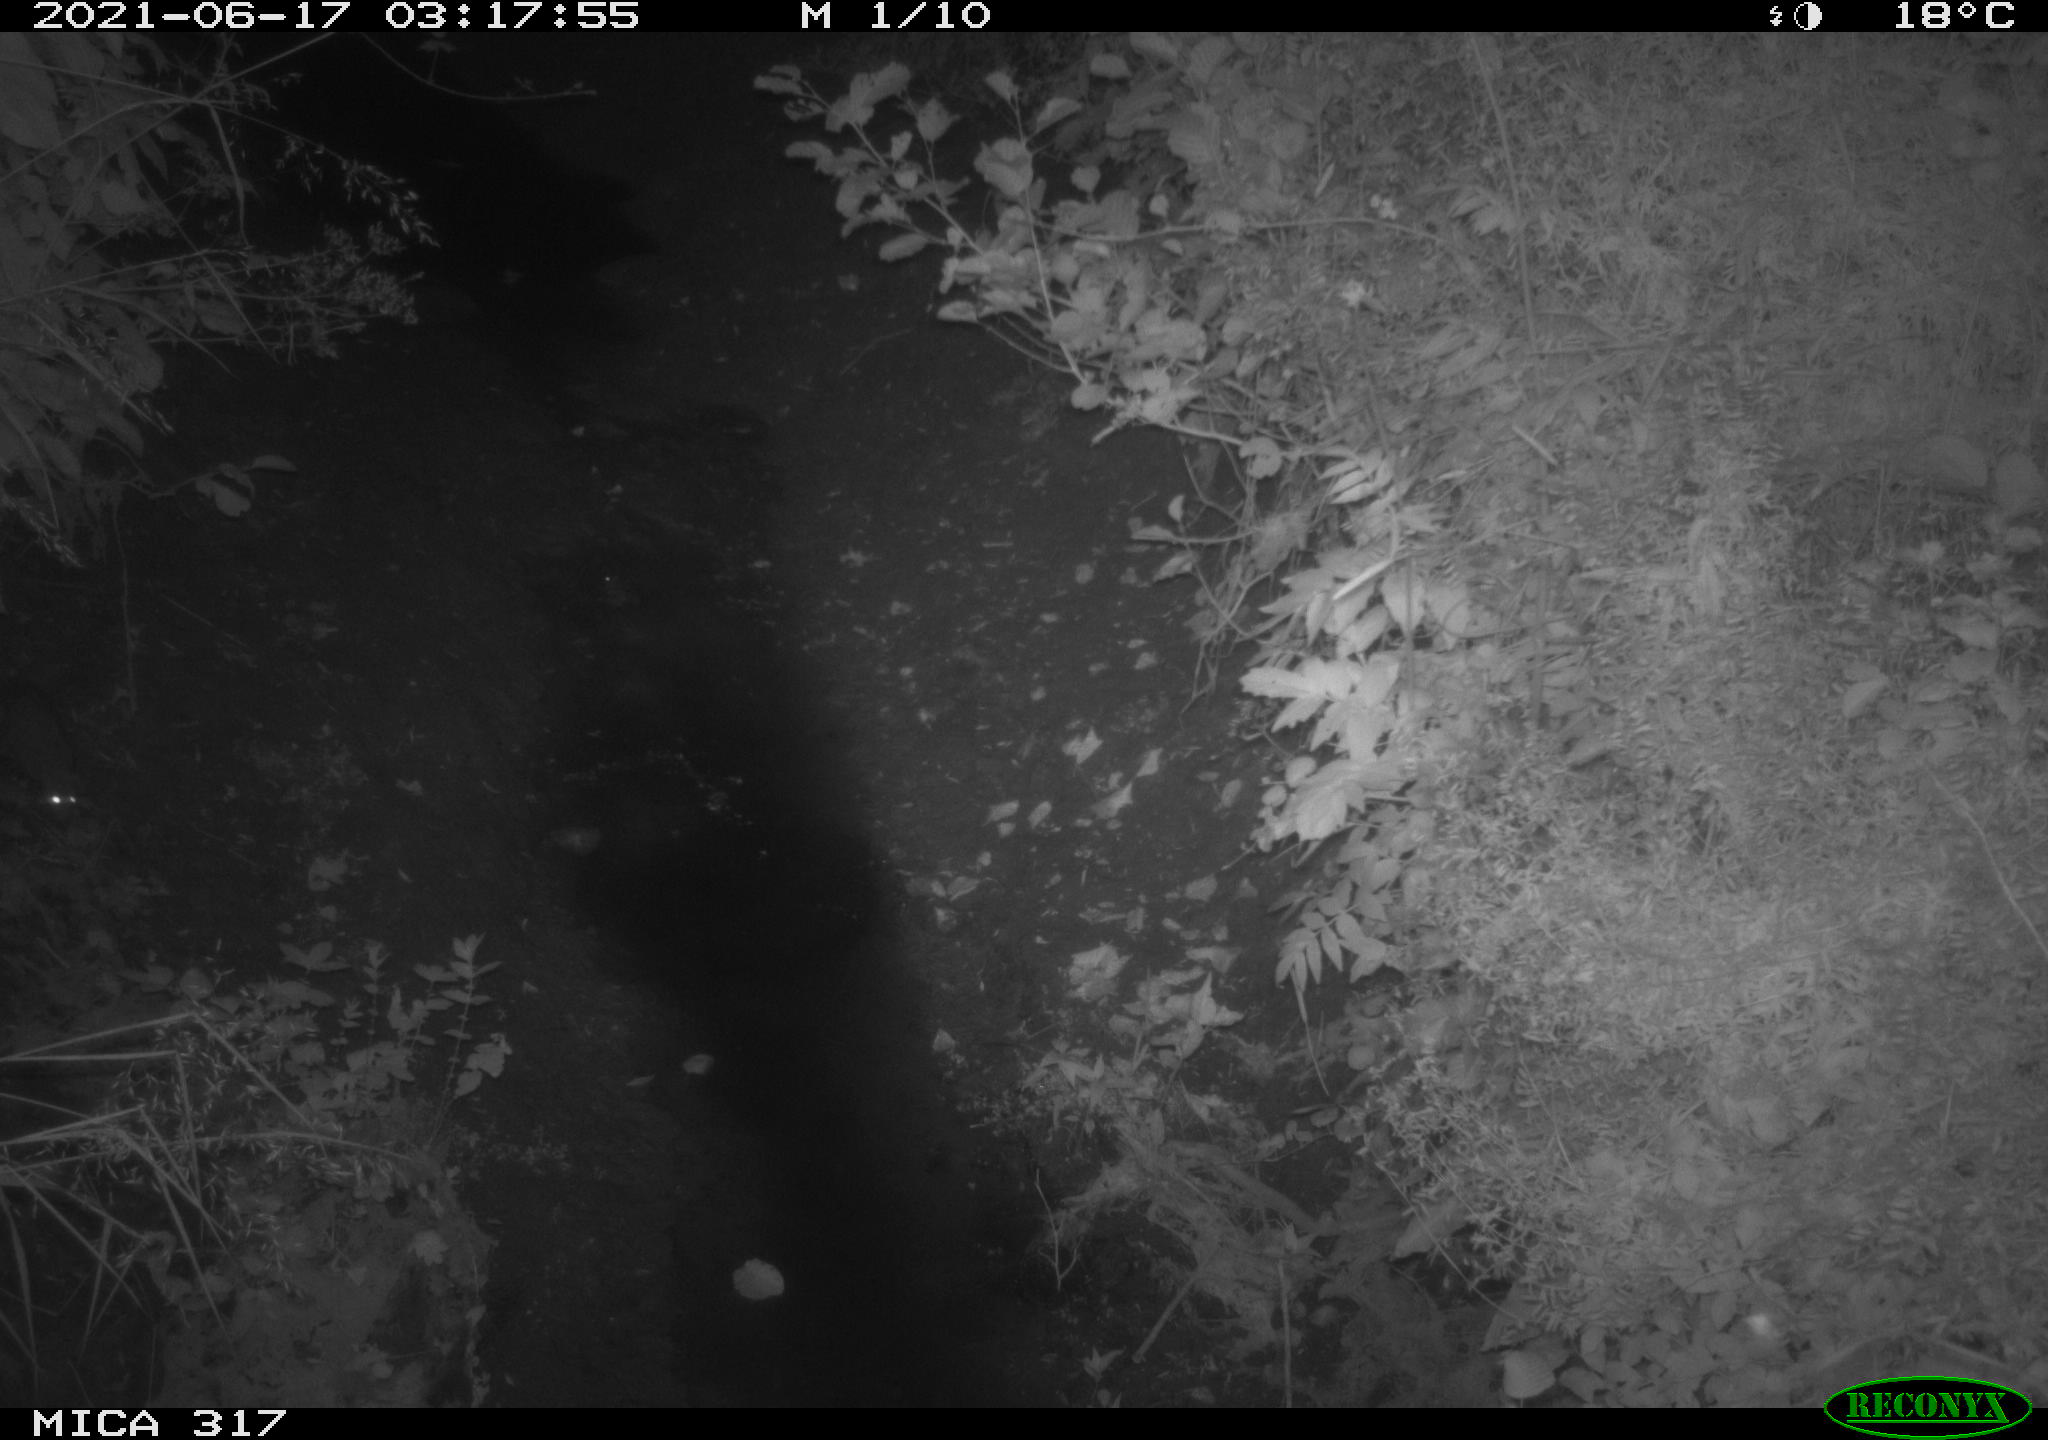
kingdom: Animalia
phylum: Chordata
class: Mammalia
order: Rodentia
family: Muridae
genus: Rattus
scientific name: Rattus norvegicus
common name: Brown rat
